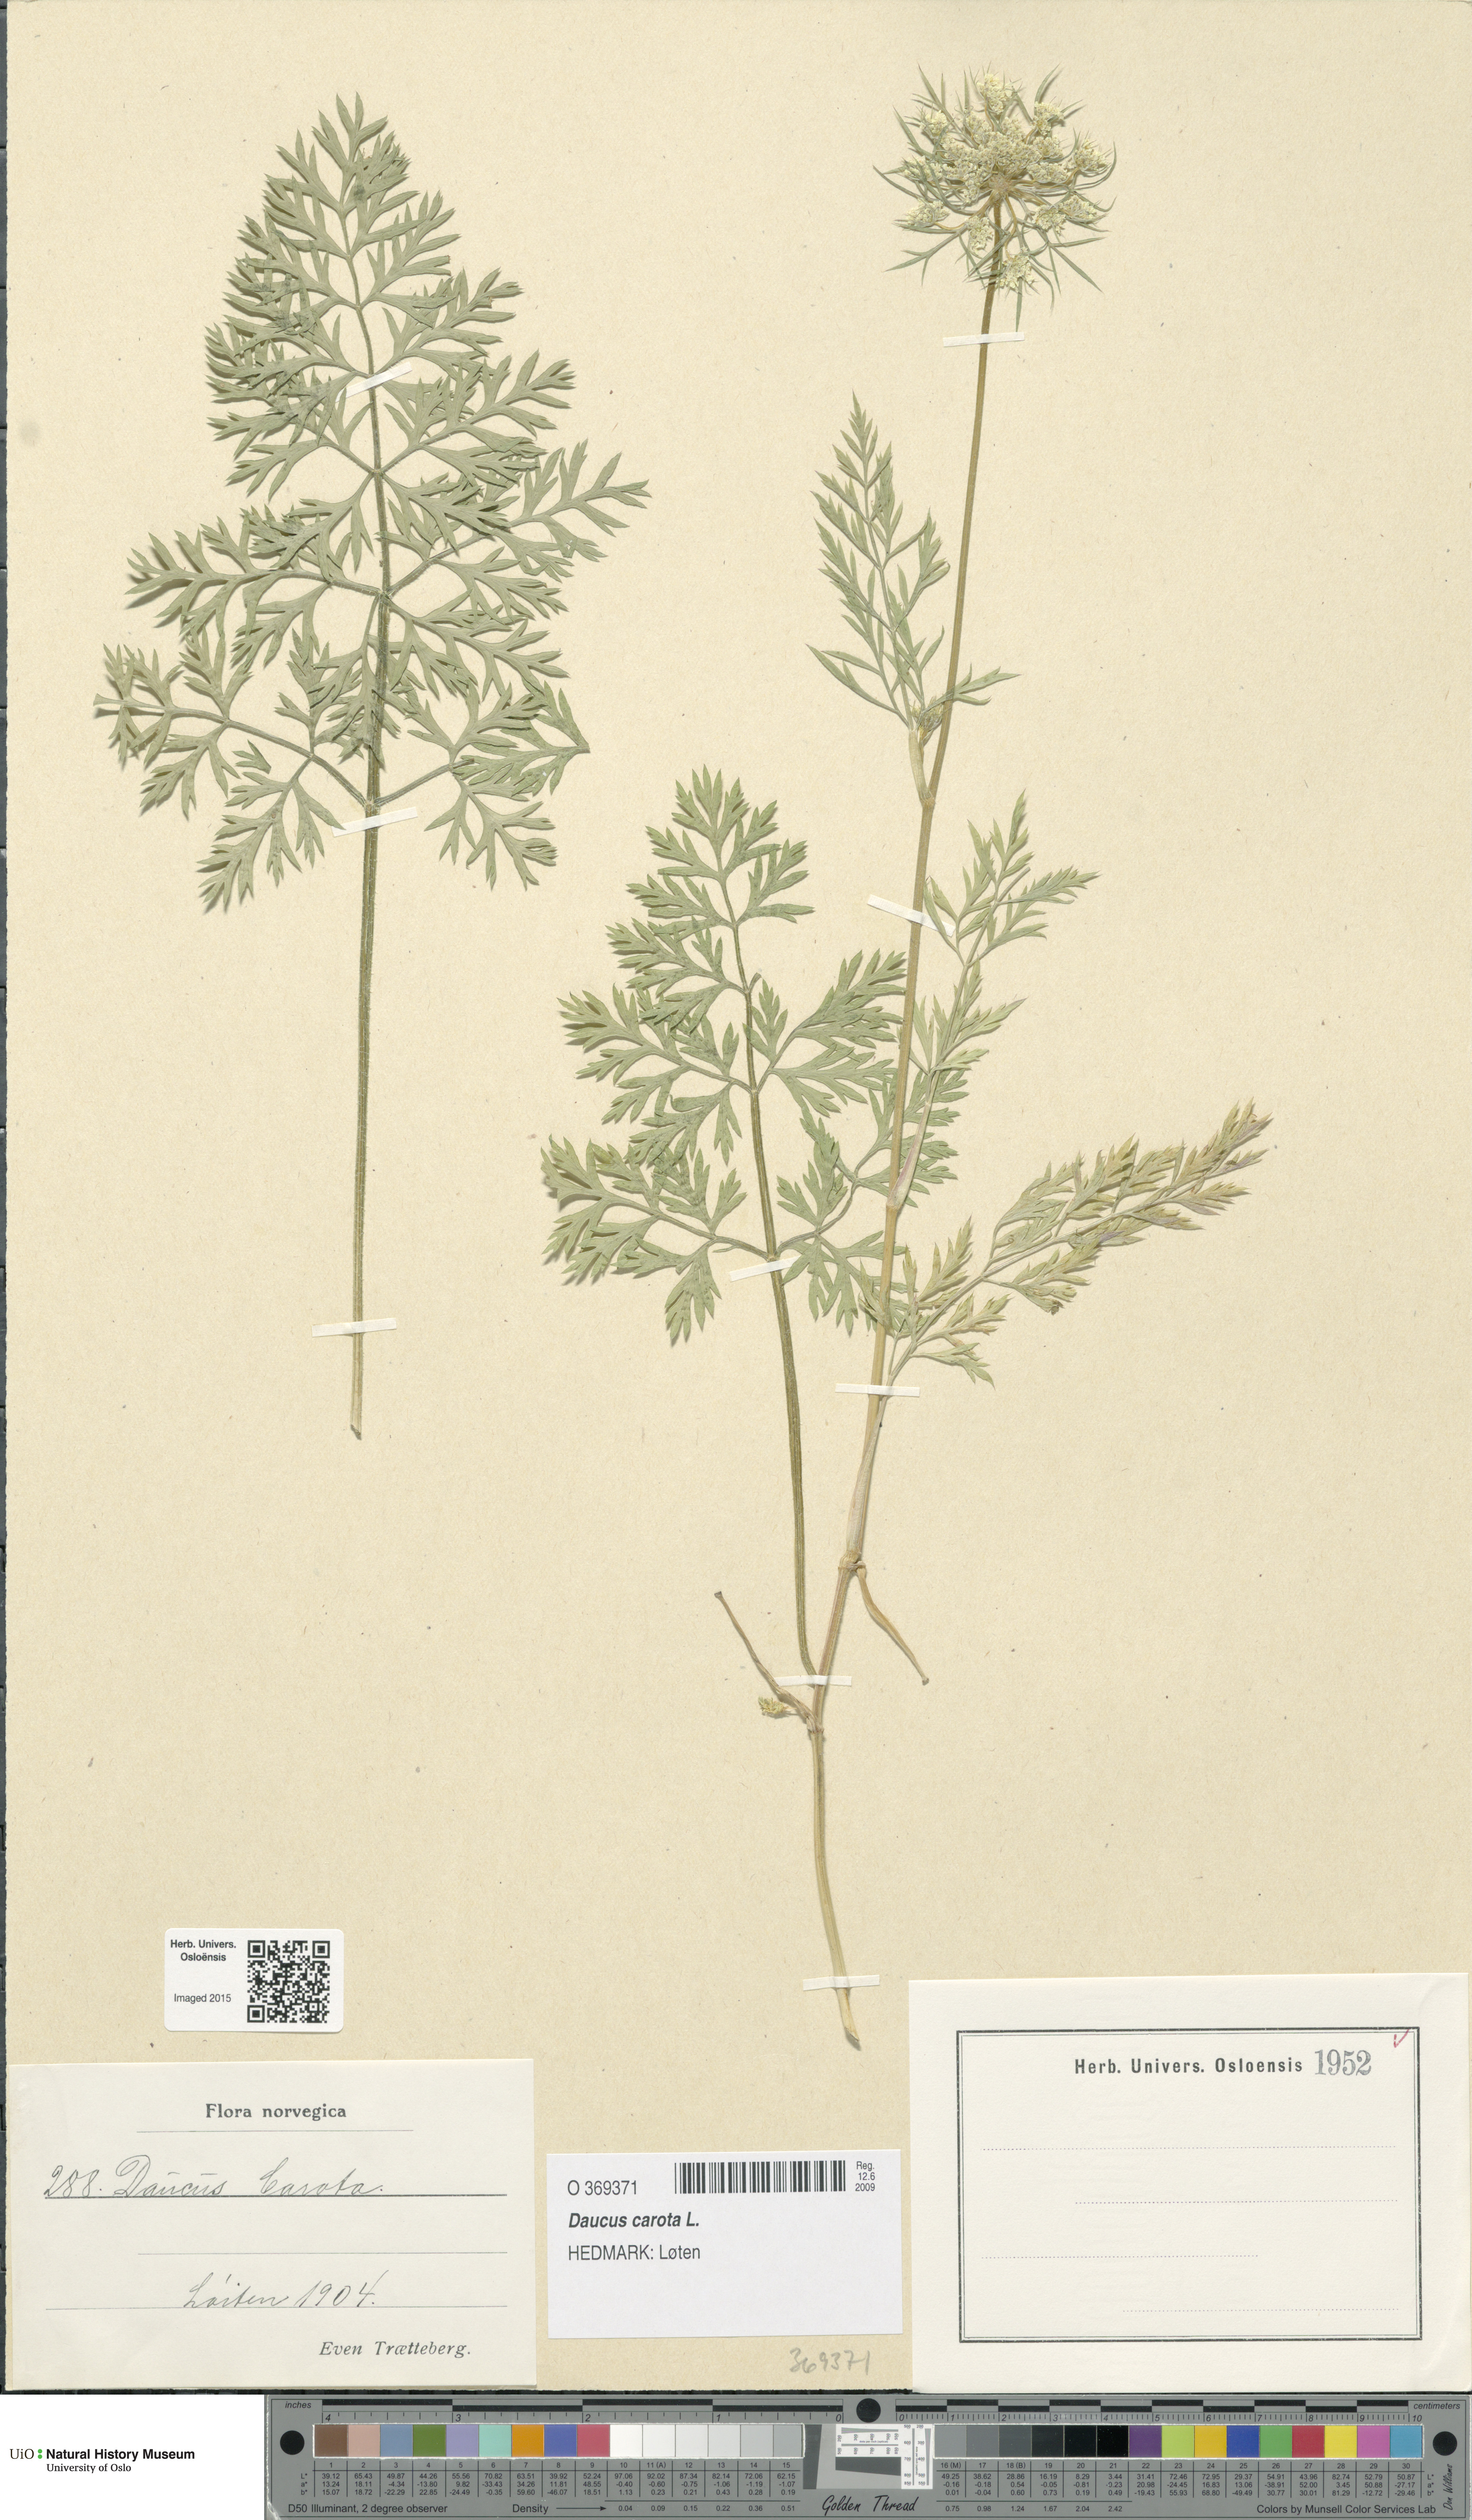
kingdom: Plantae
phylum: Tracheophyta
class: Magnoliopsida
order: Apiales
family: Apiaceae
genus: Daucus
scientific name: Daucus carota
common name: Wild carrot
